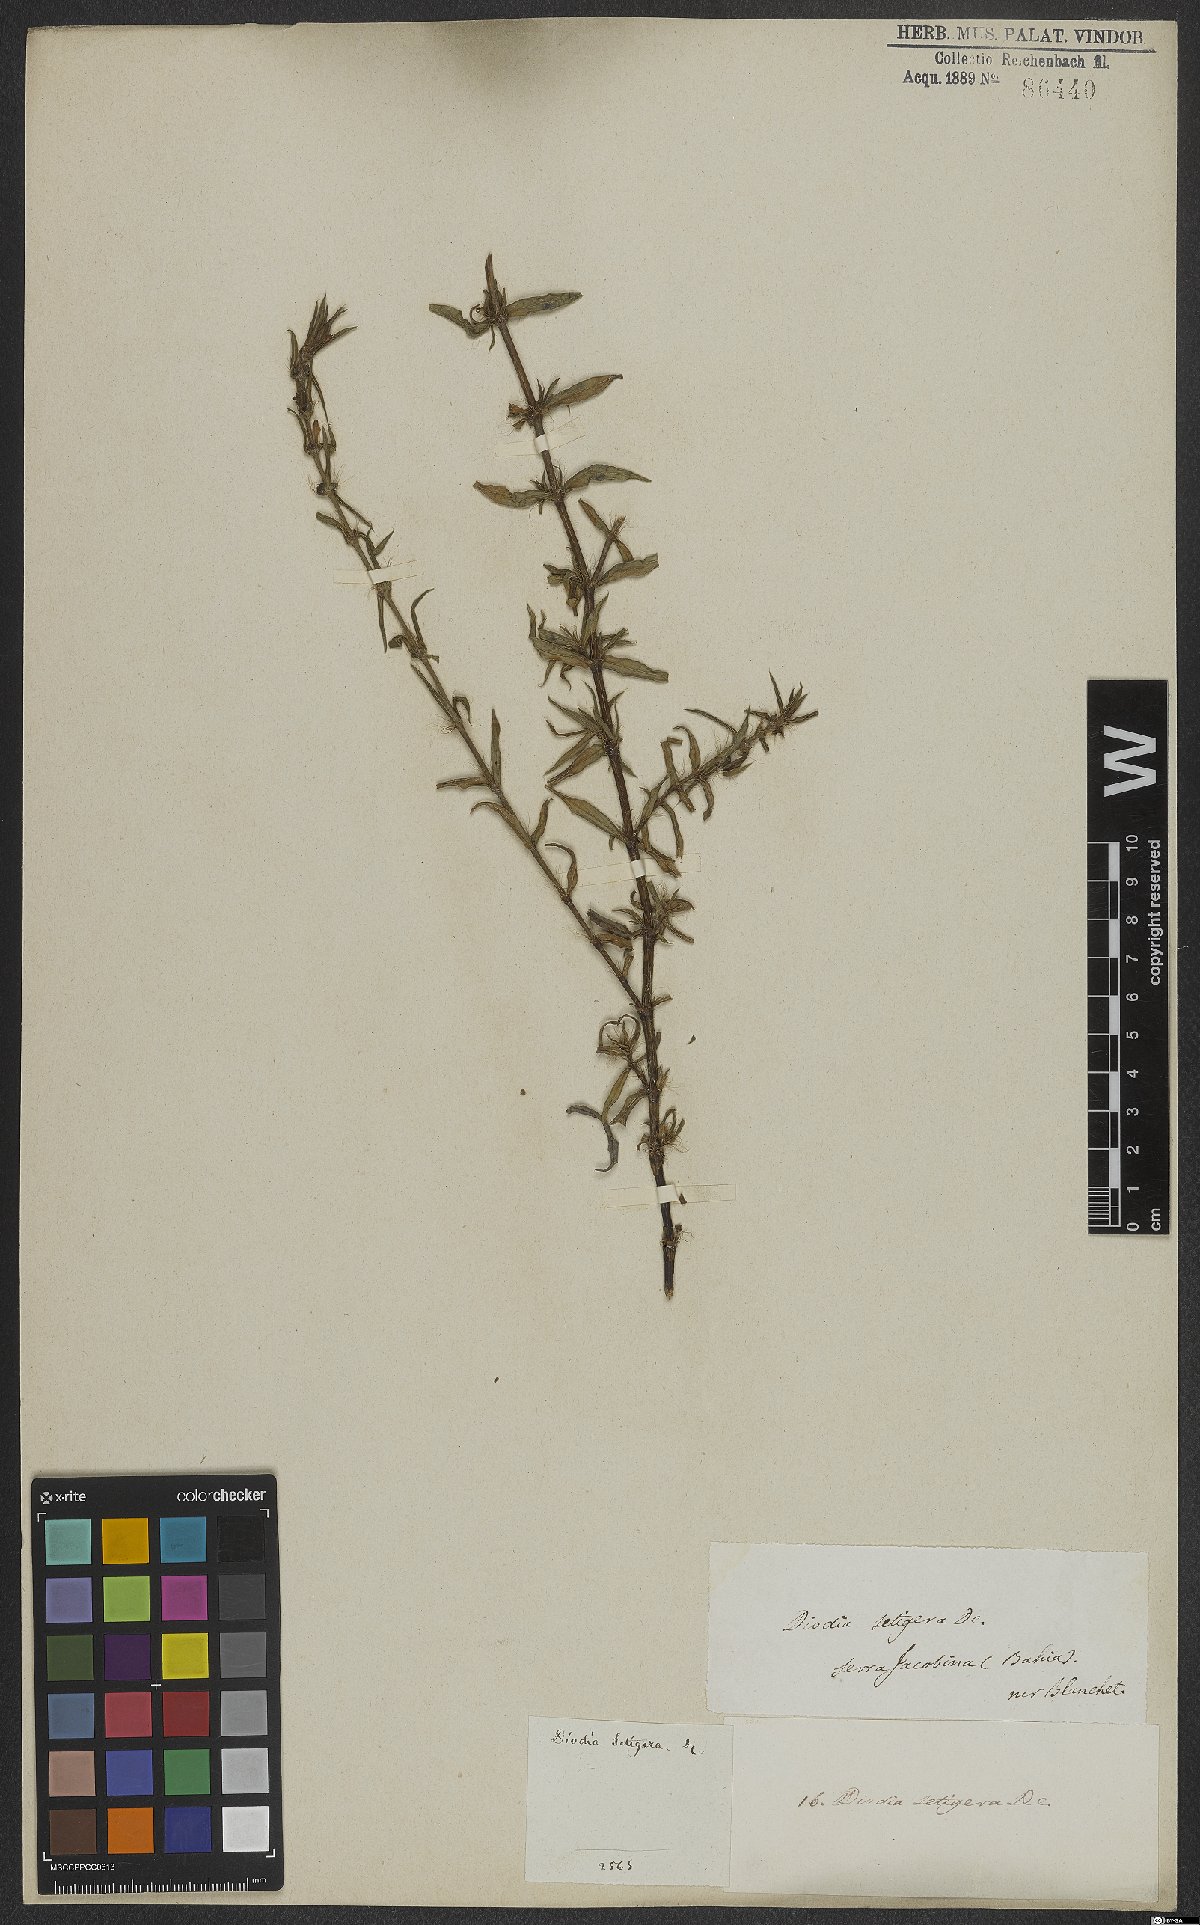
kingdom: Plantae
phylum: Tracheophyta
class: Magnoliopsida
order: Gentianales
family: Rubiaceae
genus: Hexasepalum
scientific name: Hexasepalum apiculatum
